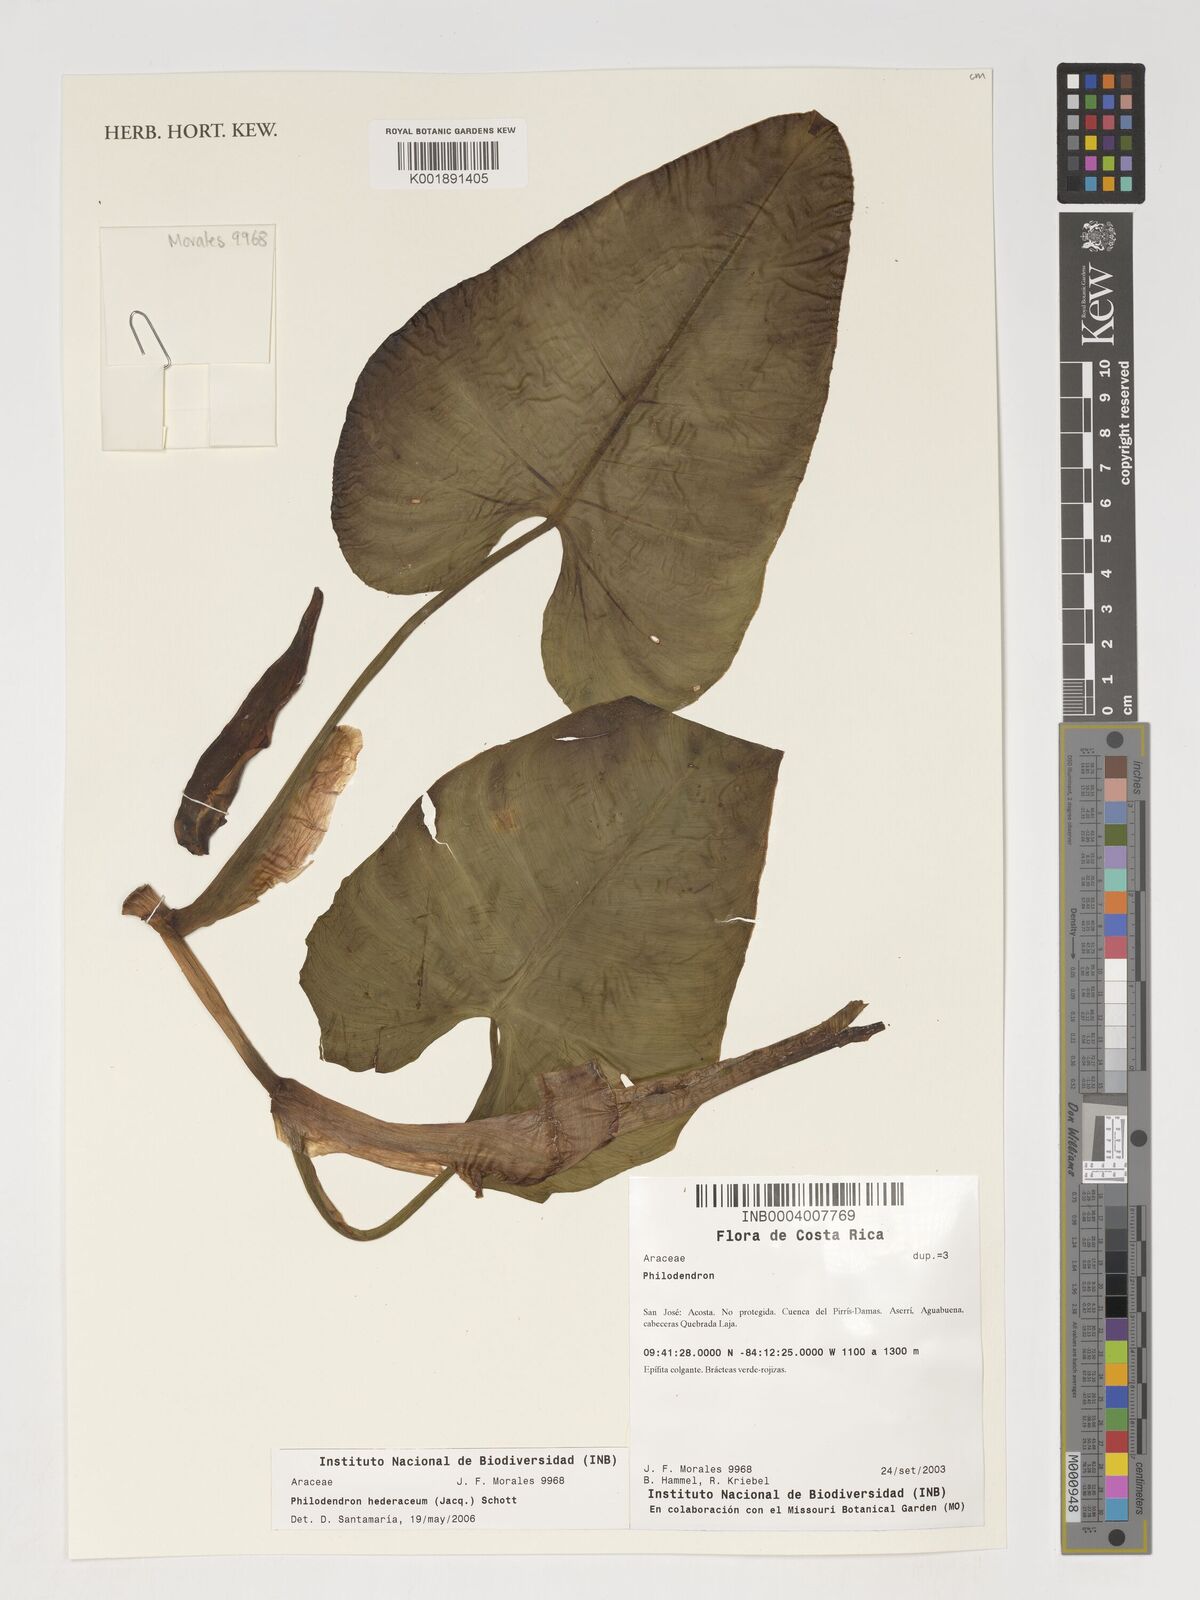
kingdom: Plantae
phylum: Tracheophyta
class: Liliopsida
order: Alismatales
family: Araceae
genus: Philodendron
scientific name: Philodendron hederaceum
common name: Vilevine
